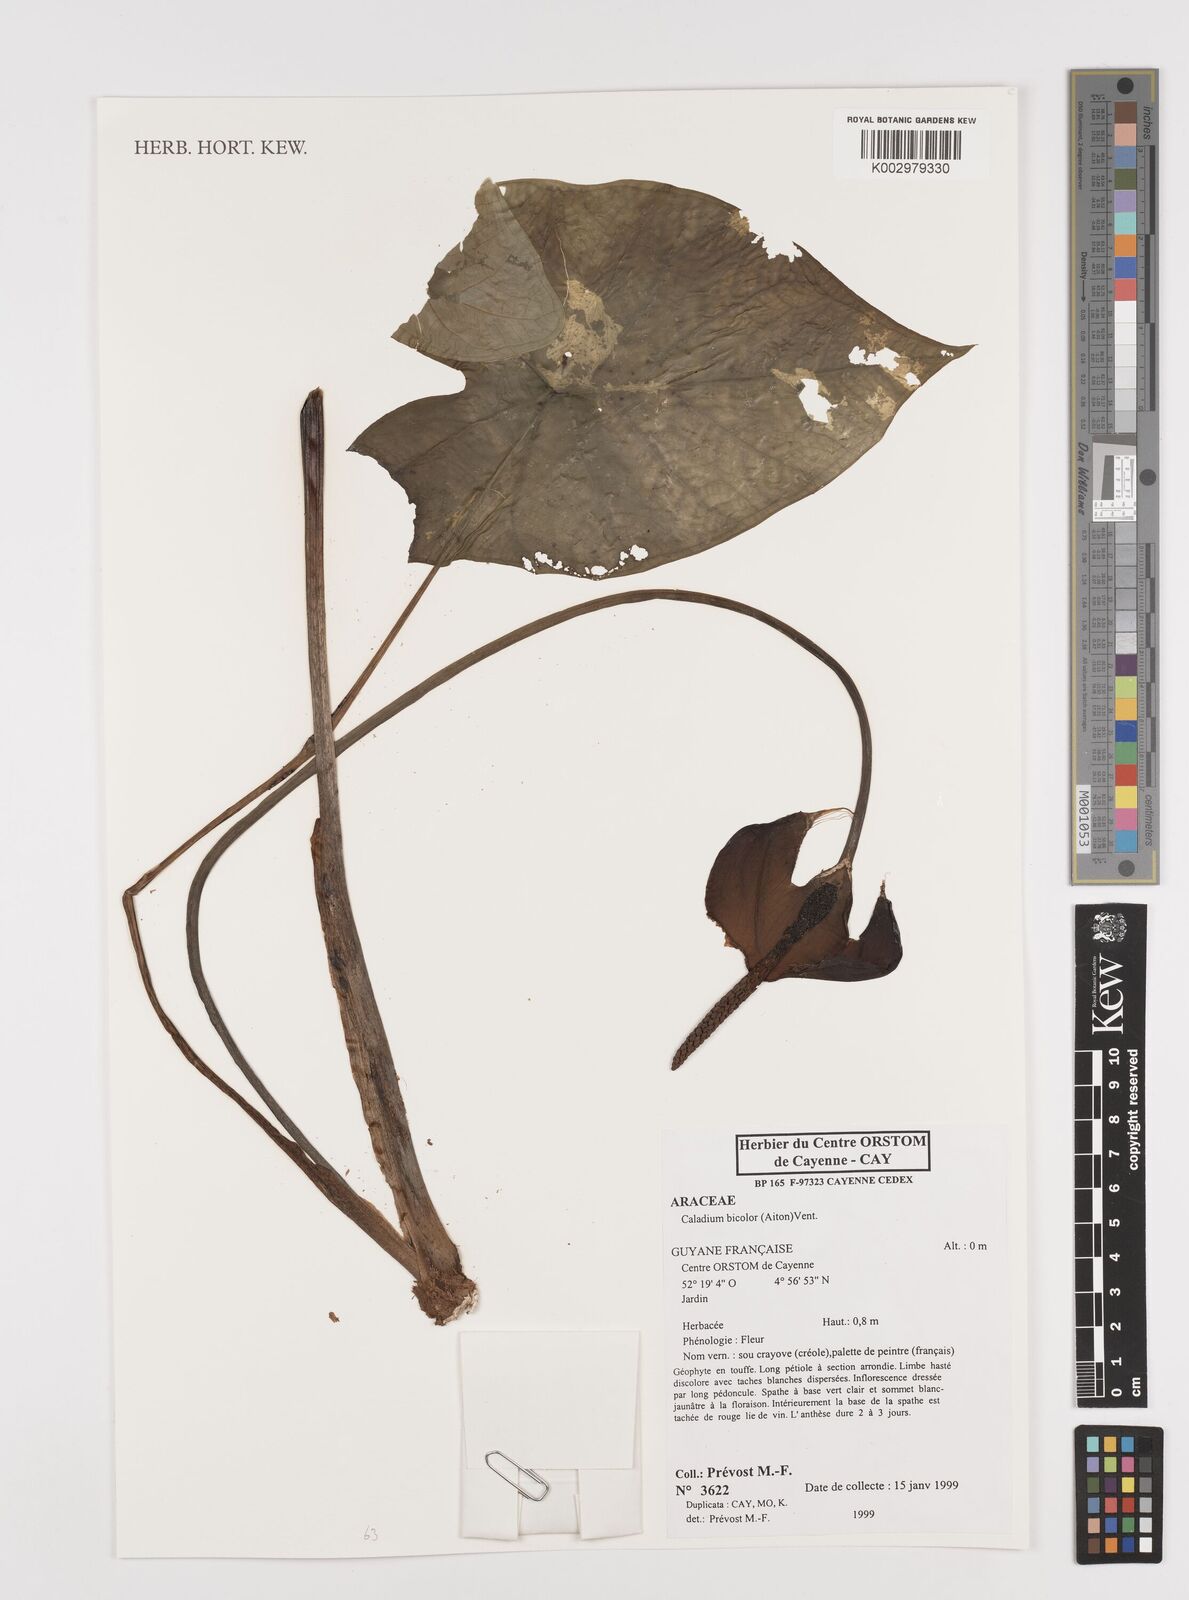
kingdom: Plantae
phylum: Tracheophyta
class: Liliopsida
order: Alismatales
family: Araceae
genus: Caladium
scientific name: Caladium bicolor
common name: Artist's pallet
